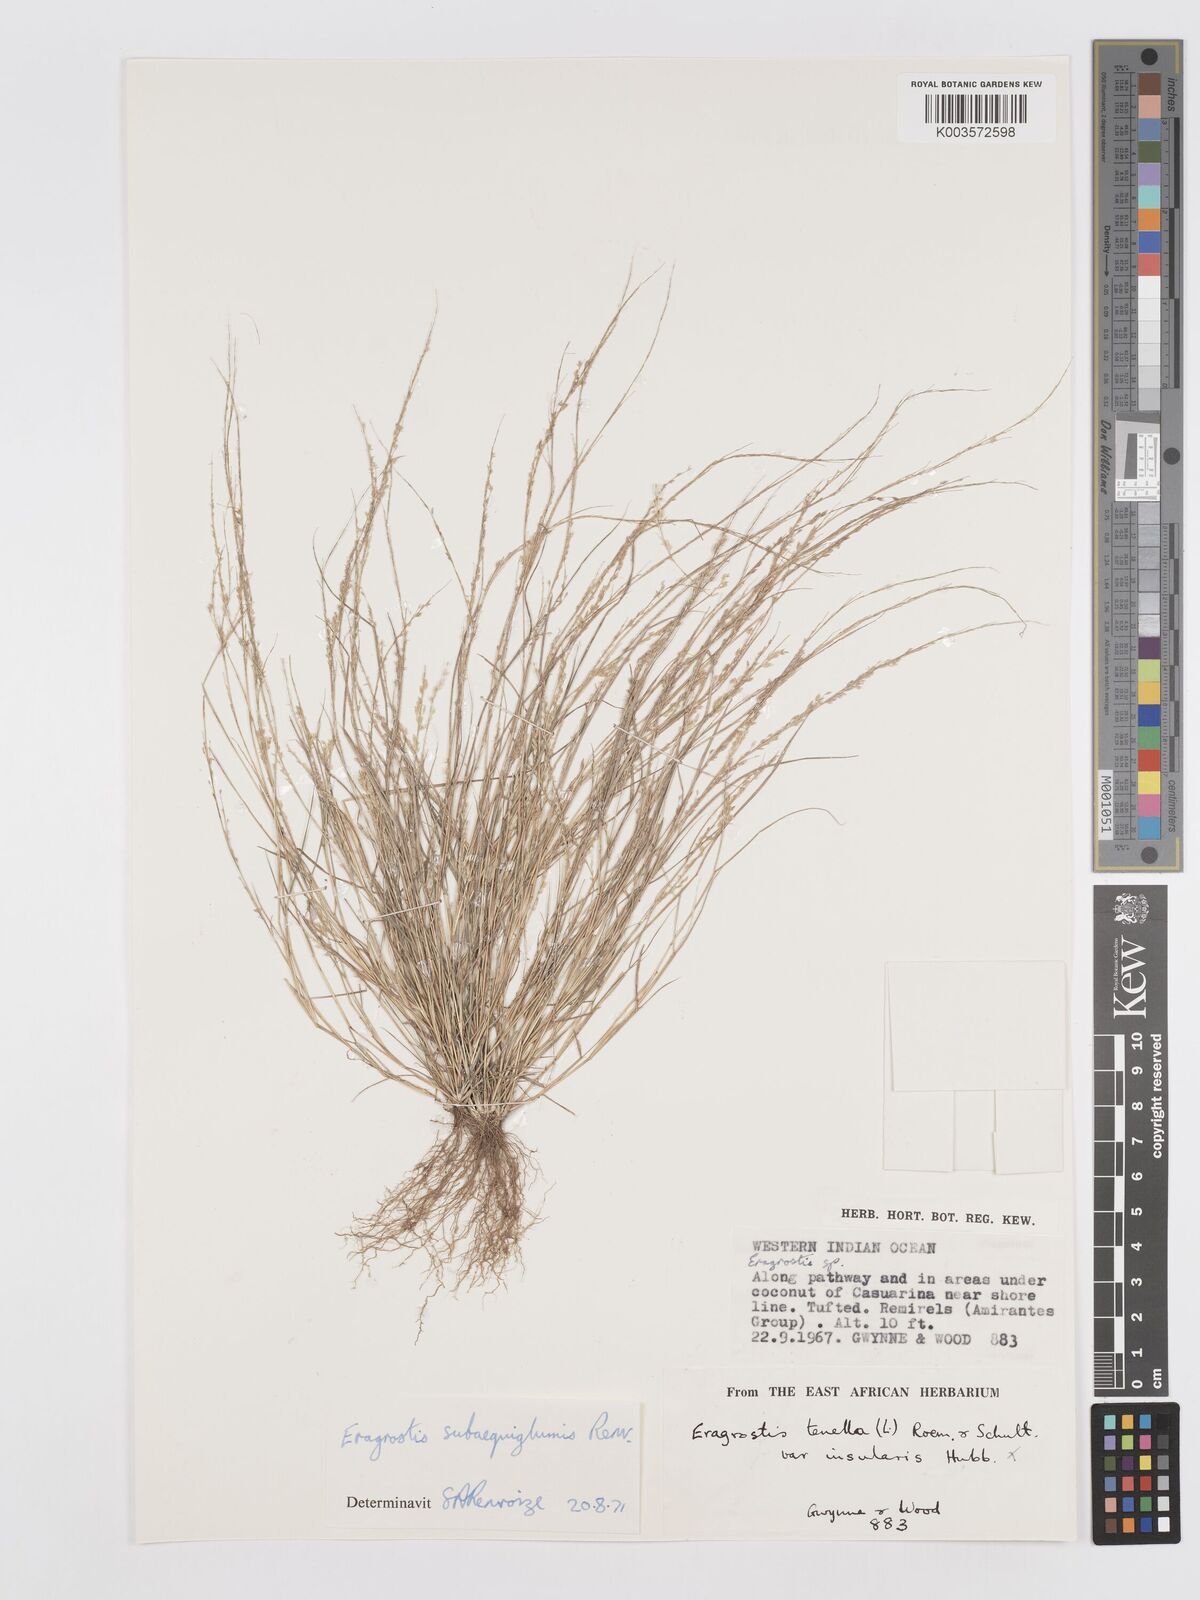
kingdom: Plantae
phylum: Tracheophyta
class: Liliopsida
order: Poales
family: Poaceae
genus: Eragrostis
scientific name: Eragrostis subaequiglumis
